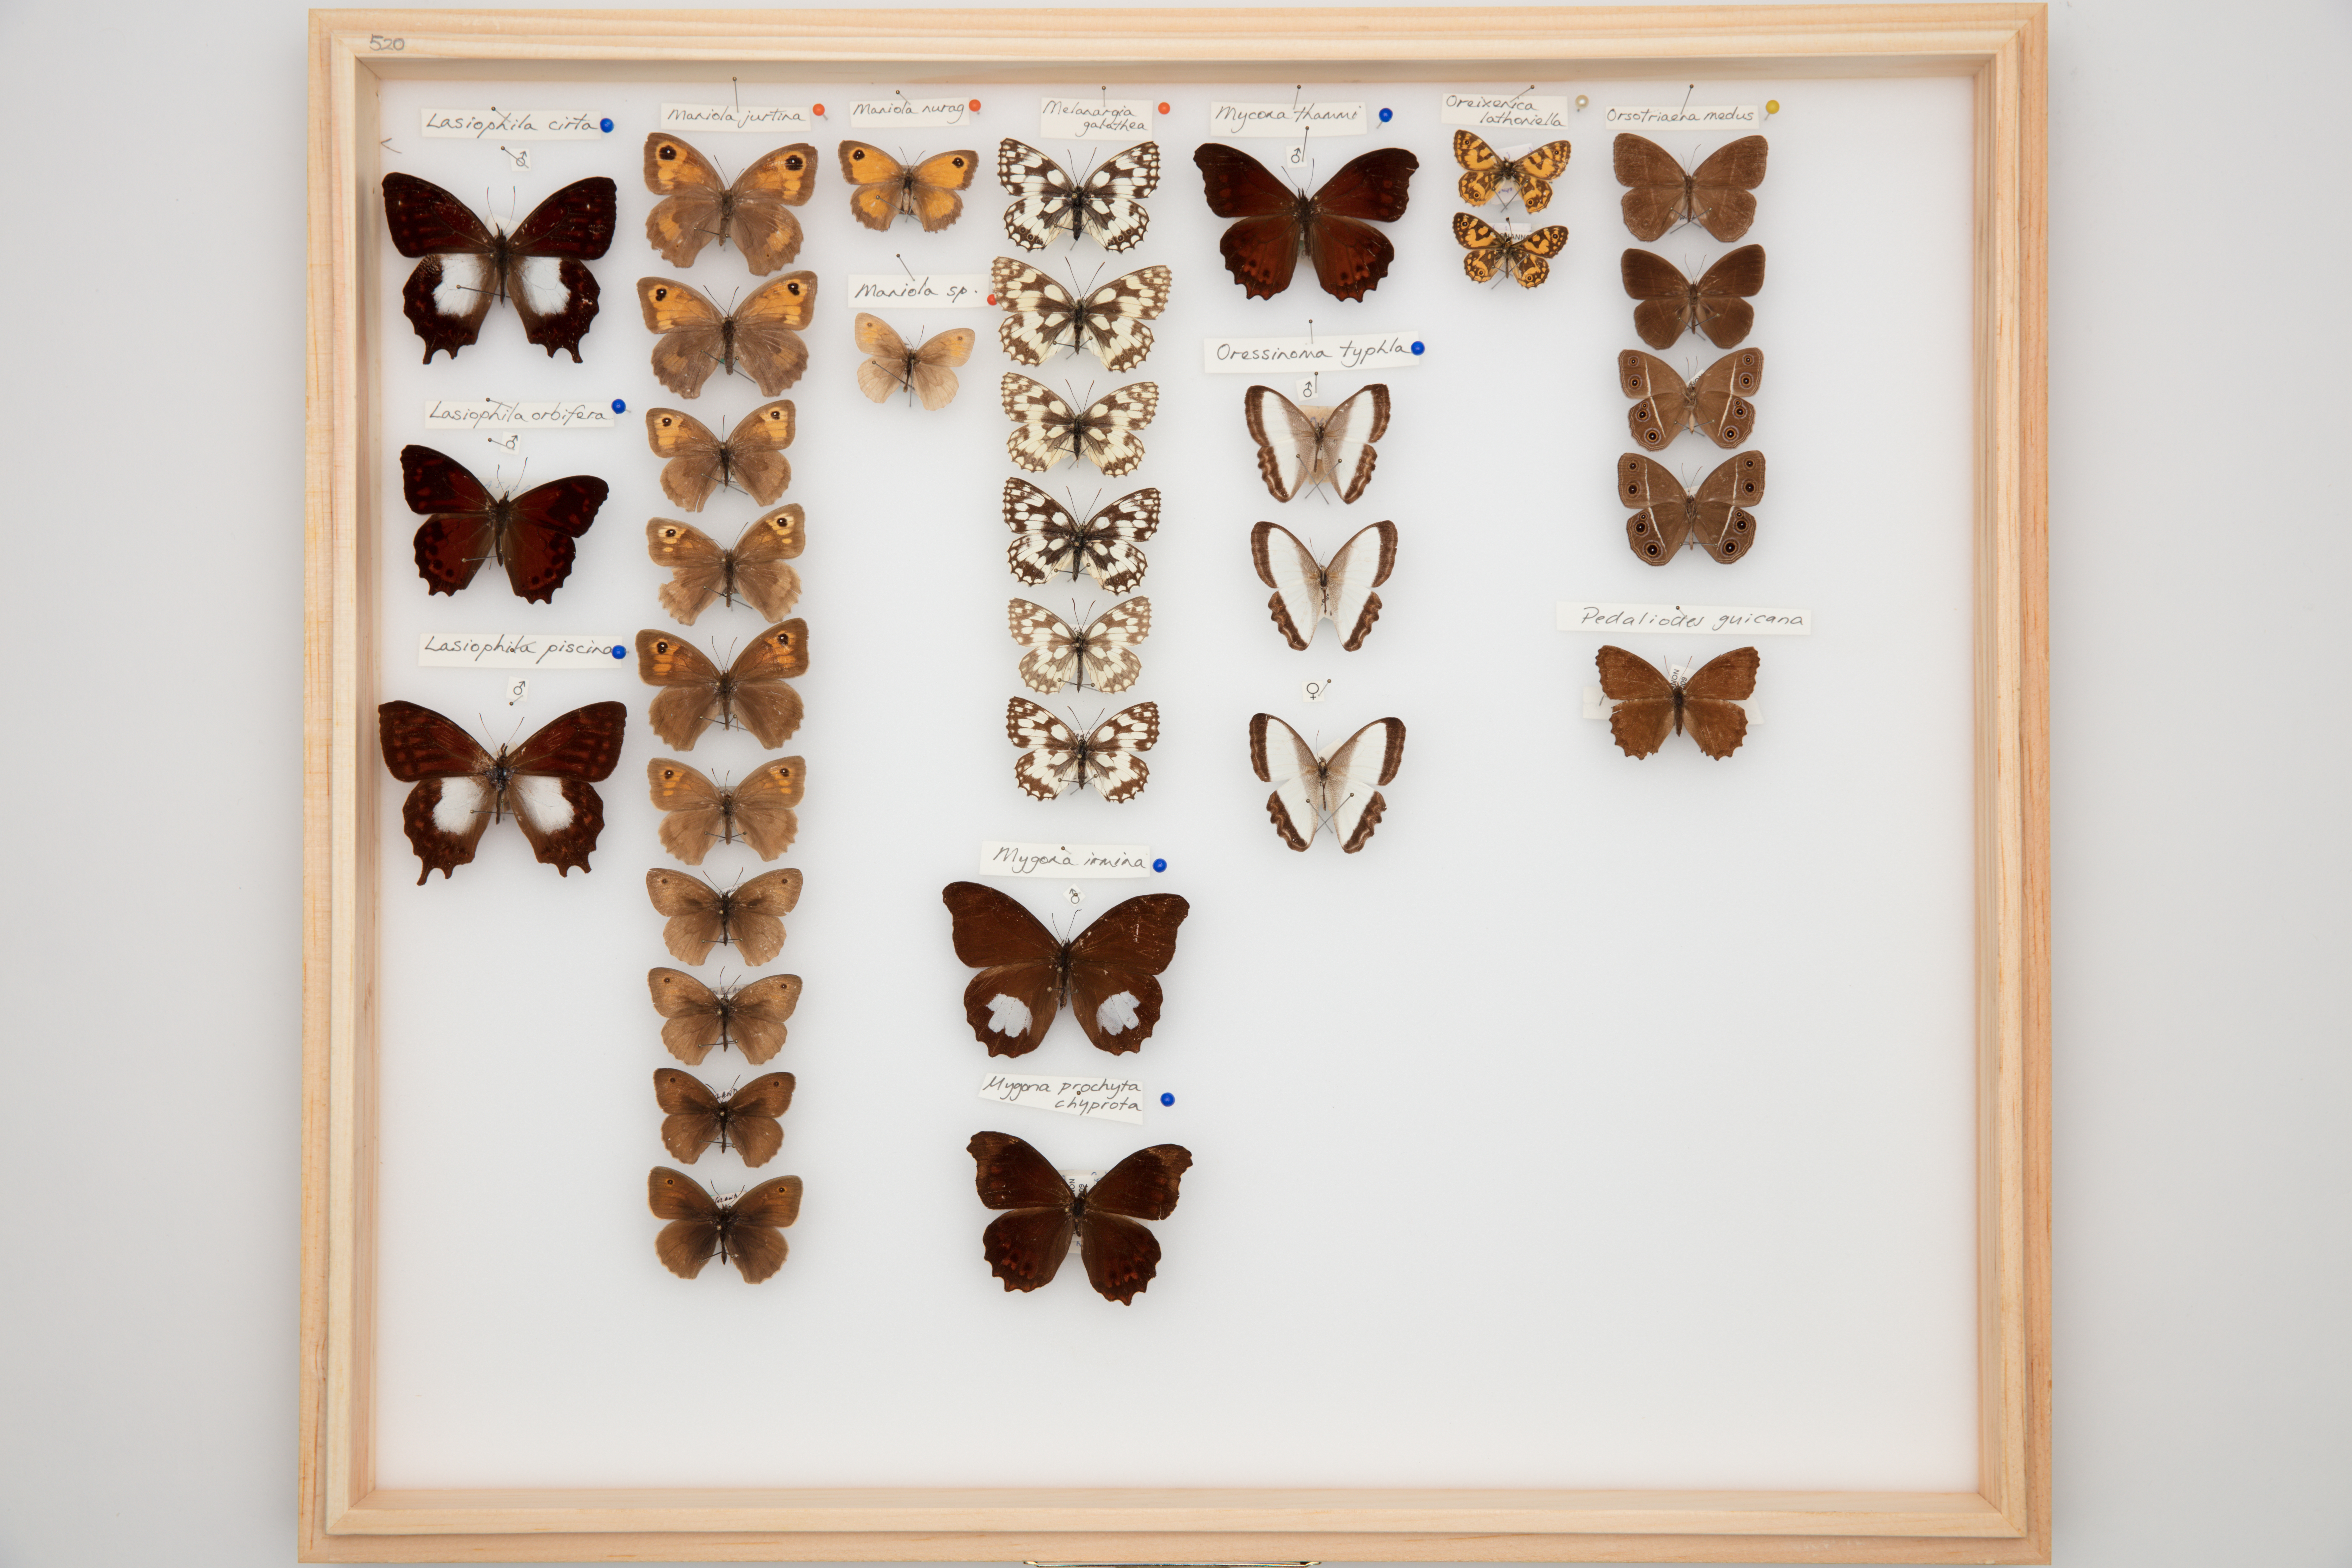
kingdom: Animalia
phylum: Arthropoda
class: Insecta
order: Lepidoptera
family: Nymphalidae
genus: Maniola
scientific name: Maniola jurtina
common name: Meadow brown
